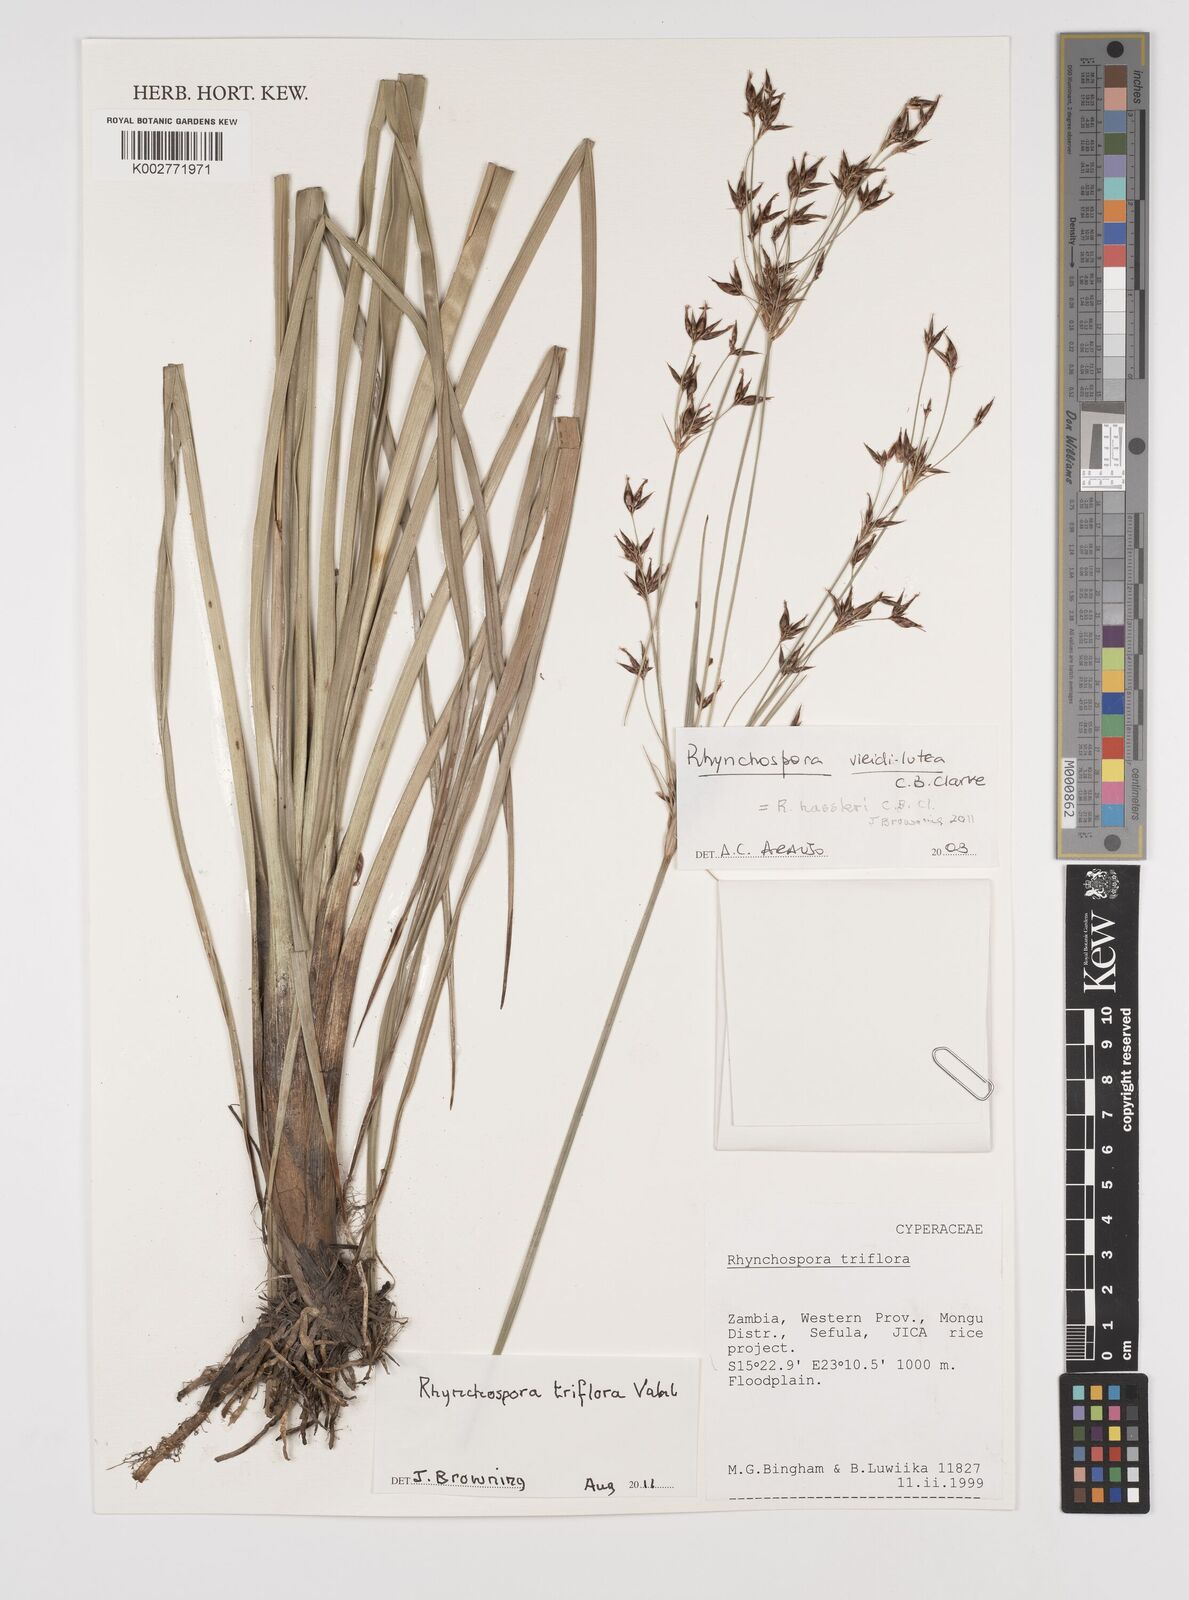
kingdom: Plantae
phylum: Tracheophyta
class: Liliopsida
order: Poales
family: Cyperaceae
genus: Rhynchospora
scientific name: Rhynchospora triflora
